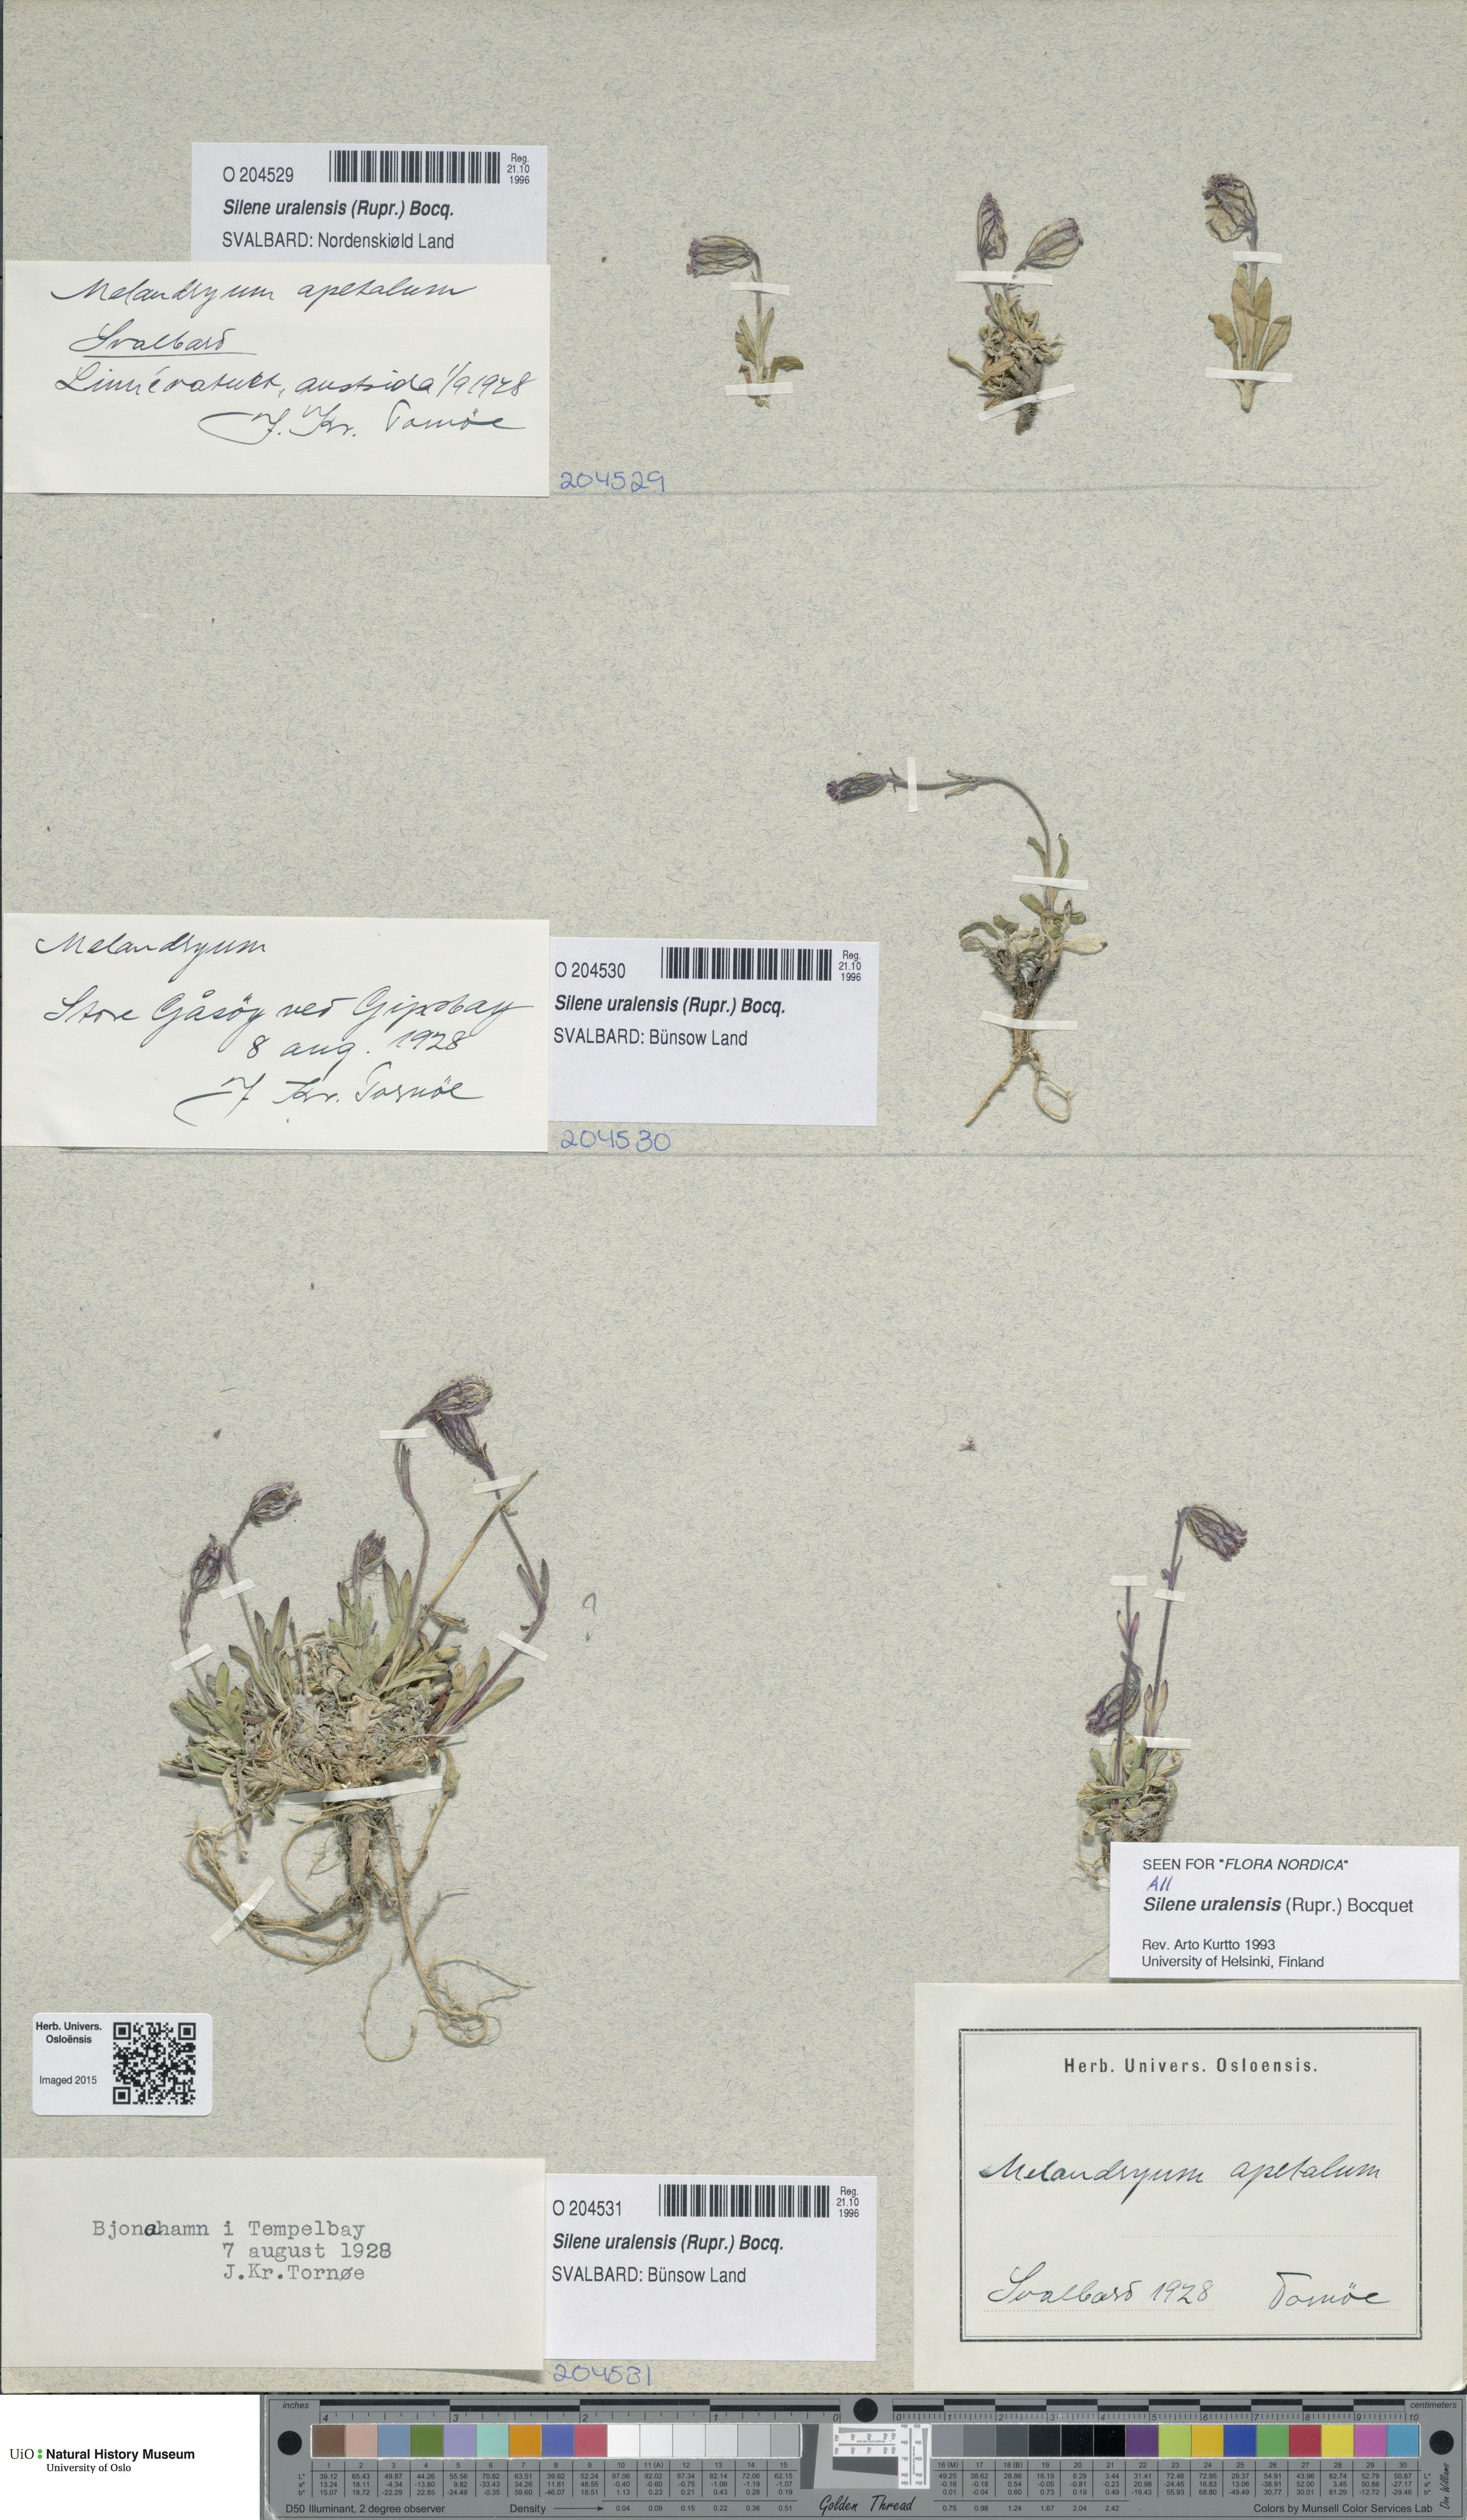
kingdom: Plantae
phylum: Tracheophyta
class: Magnoliopsida
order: Caryophyllales
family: Caryophyllaceae
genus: Silene
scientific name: Silene uralensis
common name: Nodding campion
